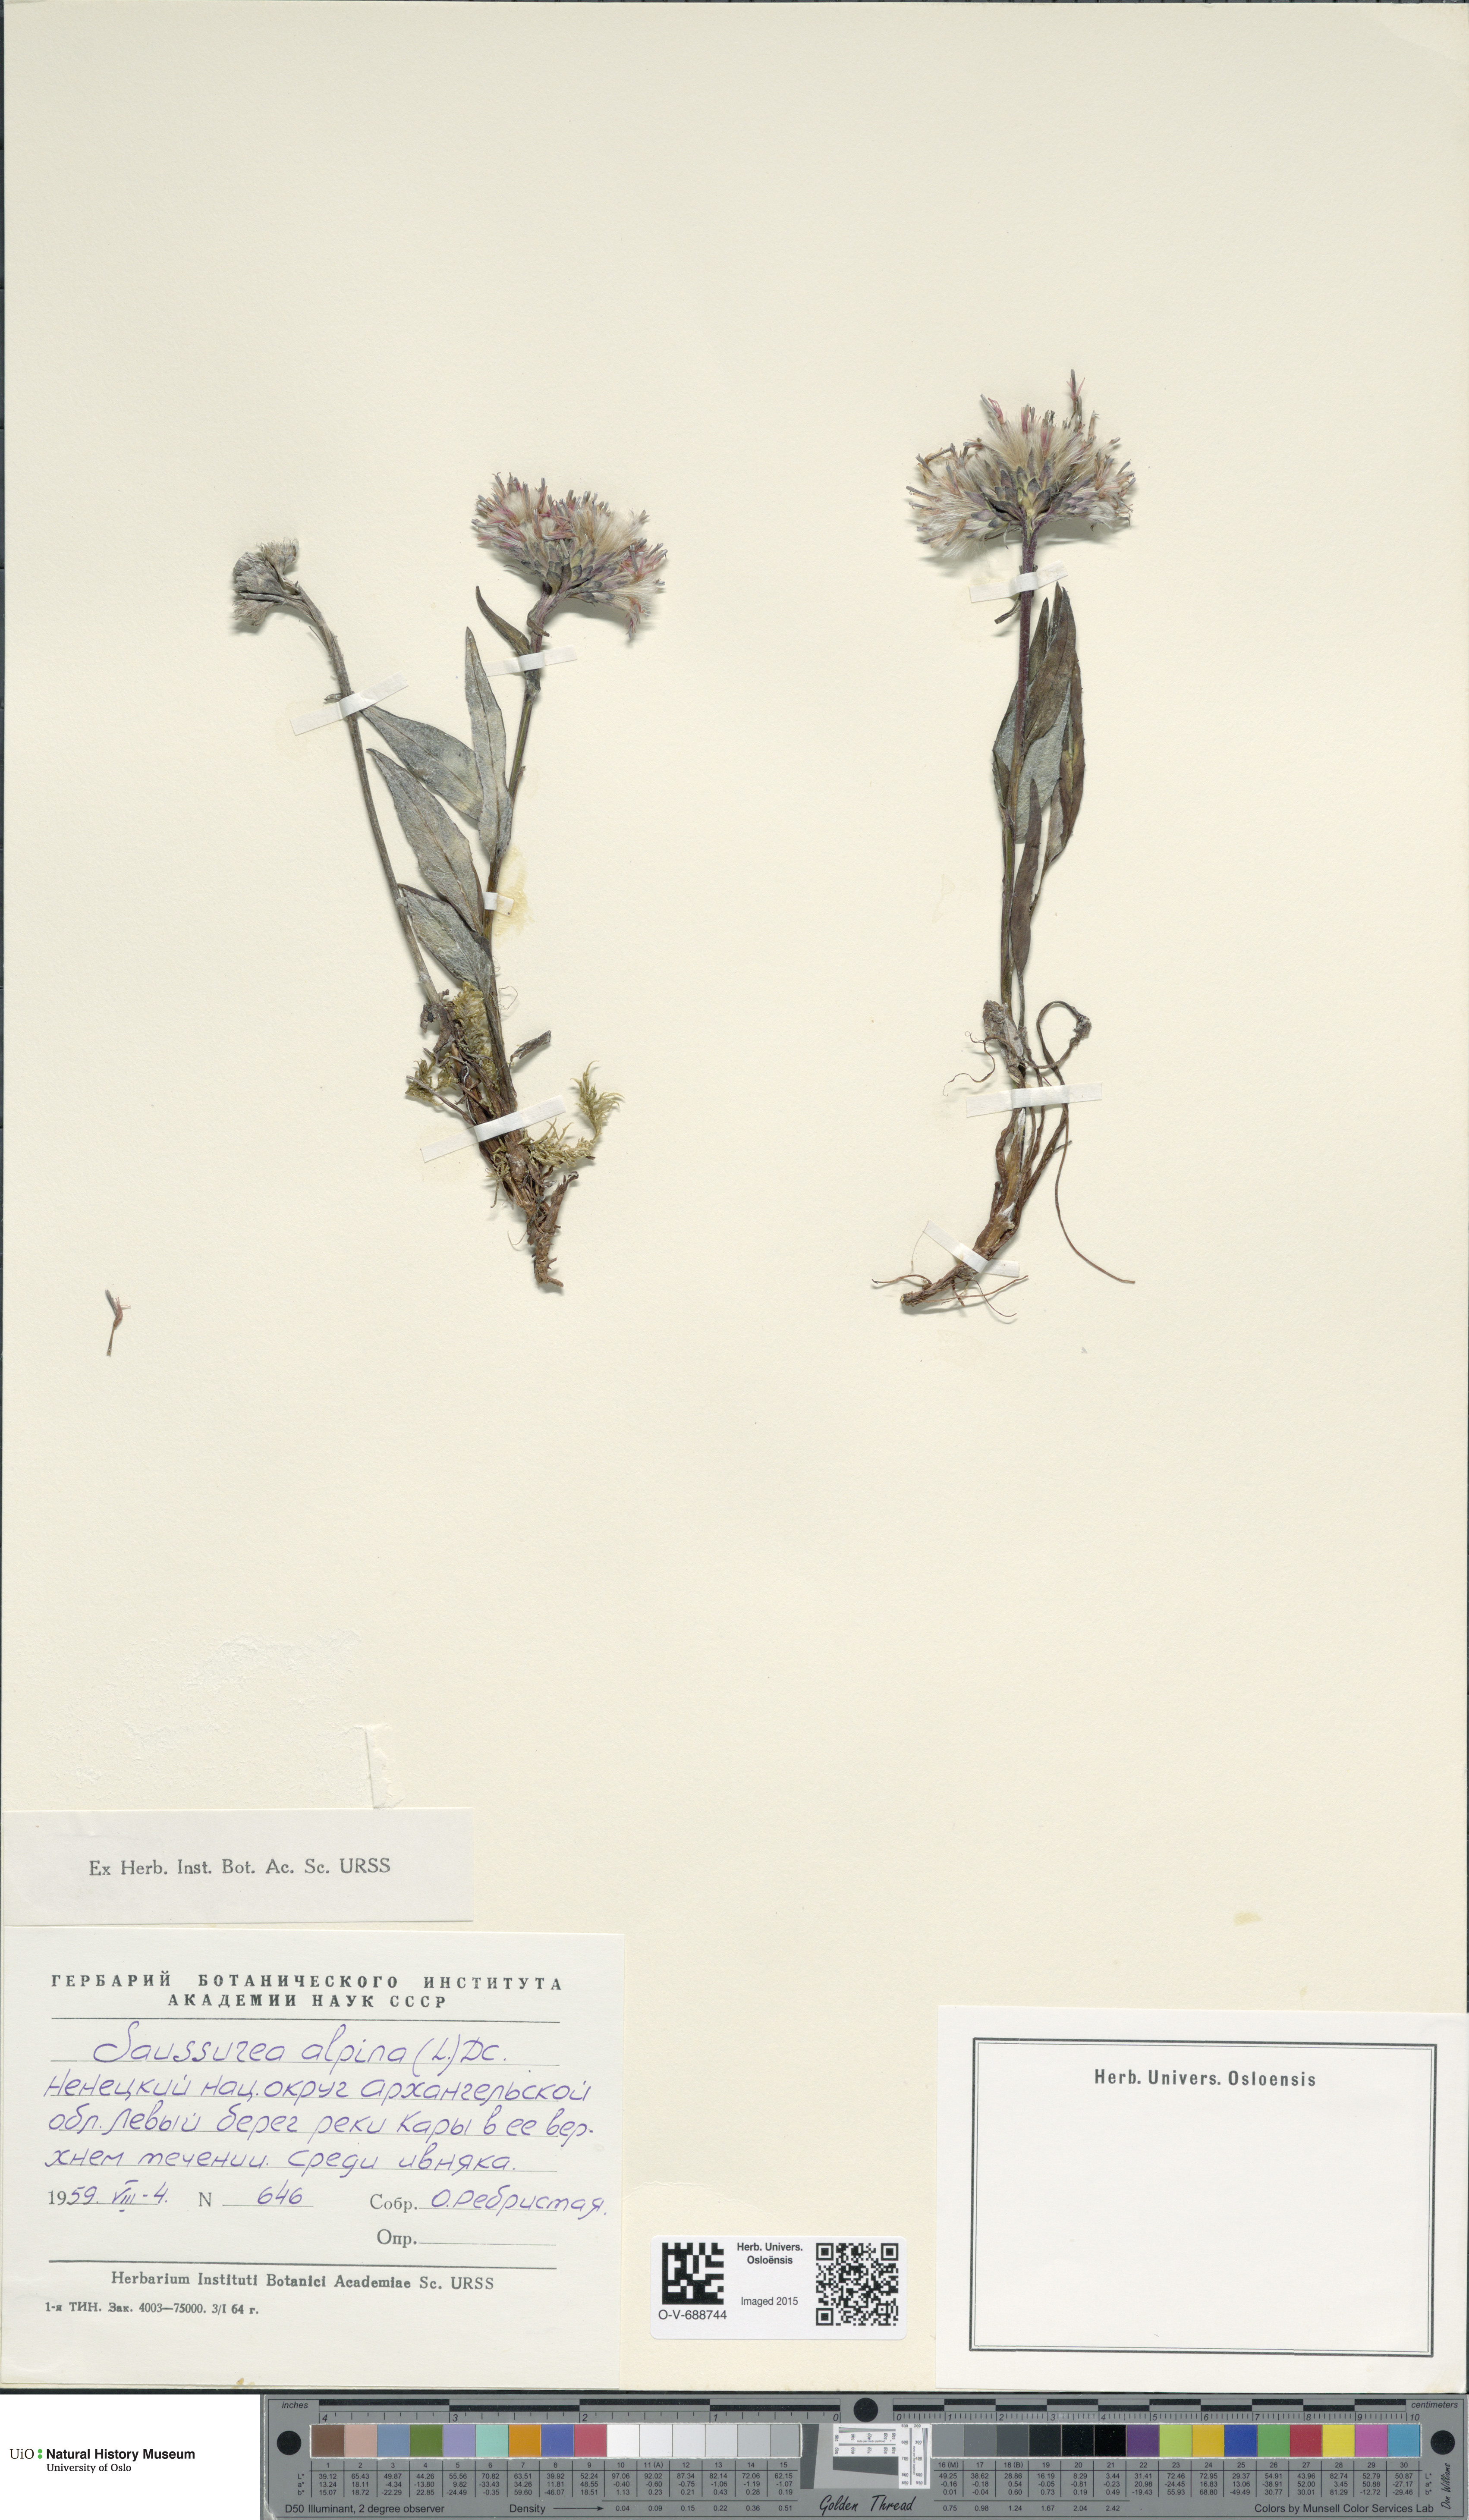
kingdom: Plantae
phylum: Tracheophyta
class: Magnoliopsida
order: Asterales
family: Asteraceae
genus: Saussurea
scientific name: Saussurea alpina
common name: Alpine saw-wort
